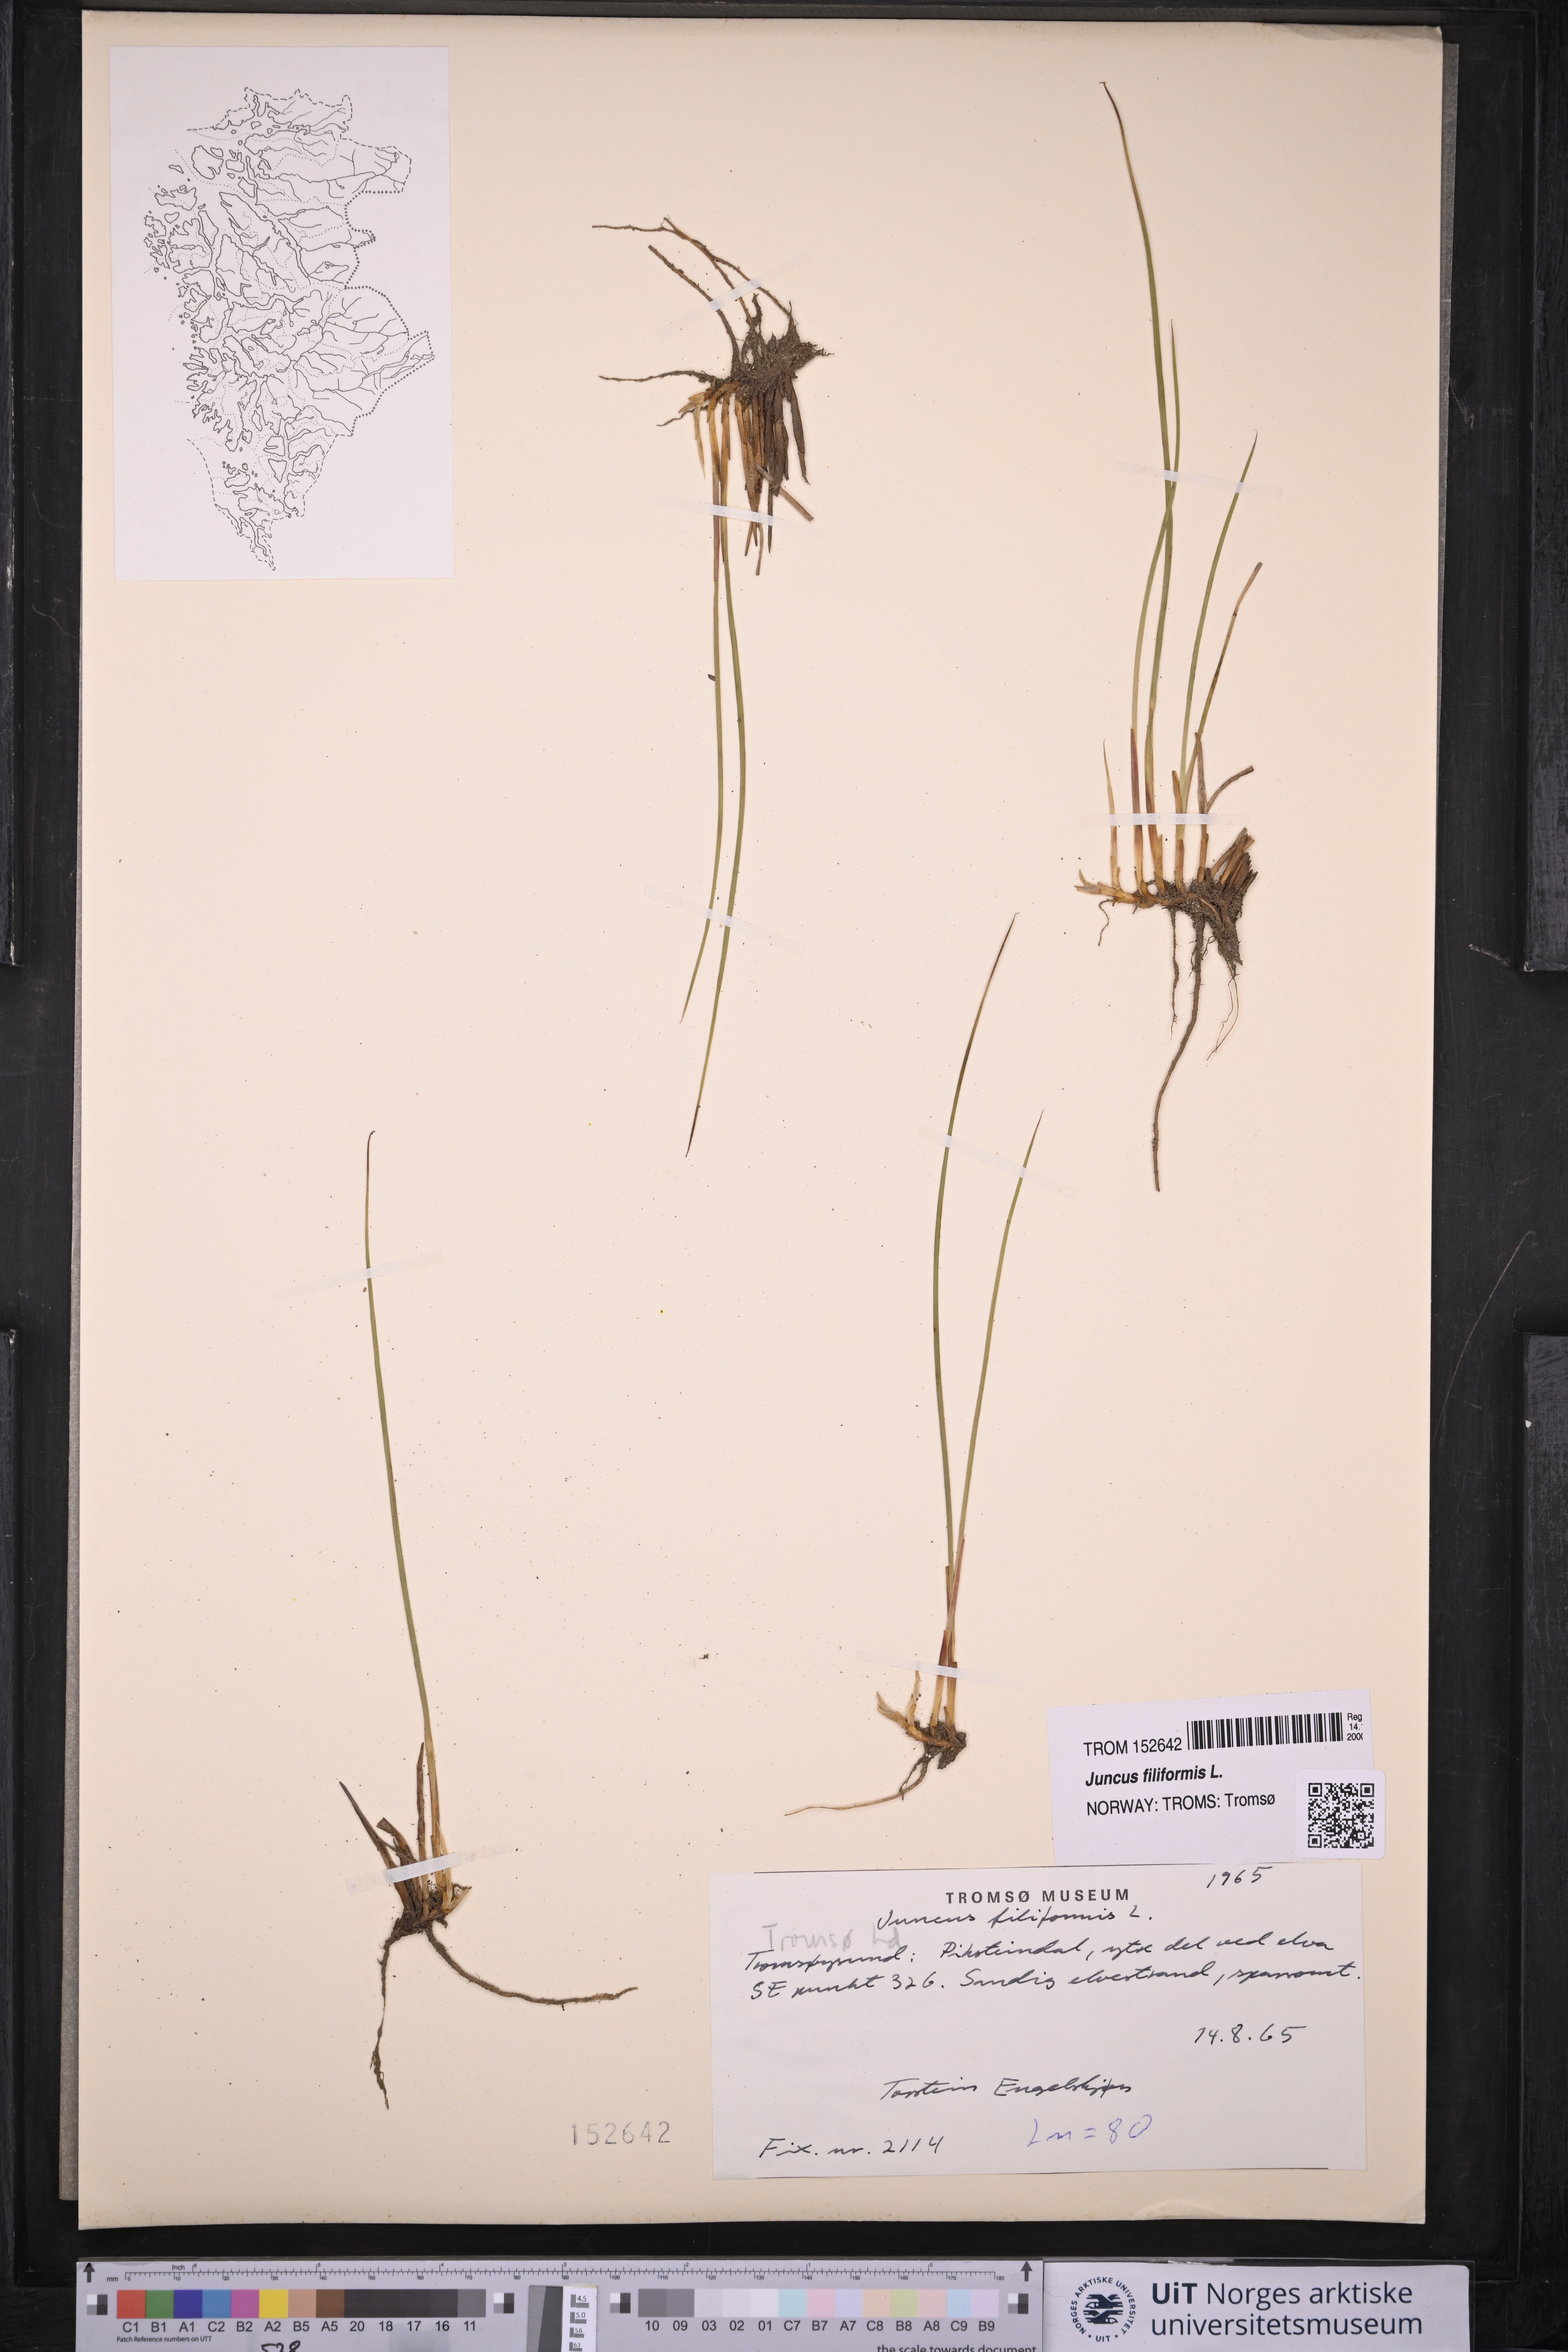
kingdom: Plantae
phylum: Tracheophyta
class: Liliopsida
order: Poales
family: Juncaceae
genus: Juncus
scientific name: Juncus filiformis
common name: Thread rush
